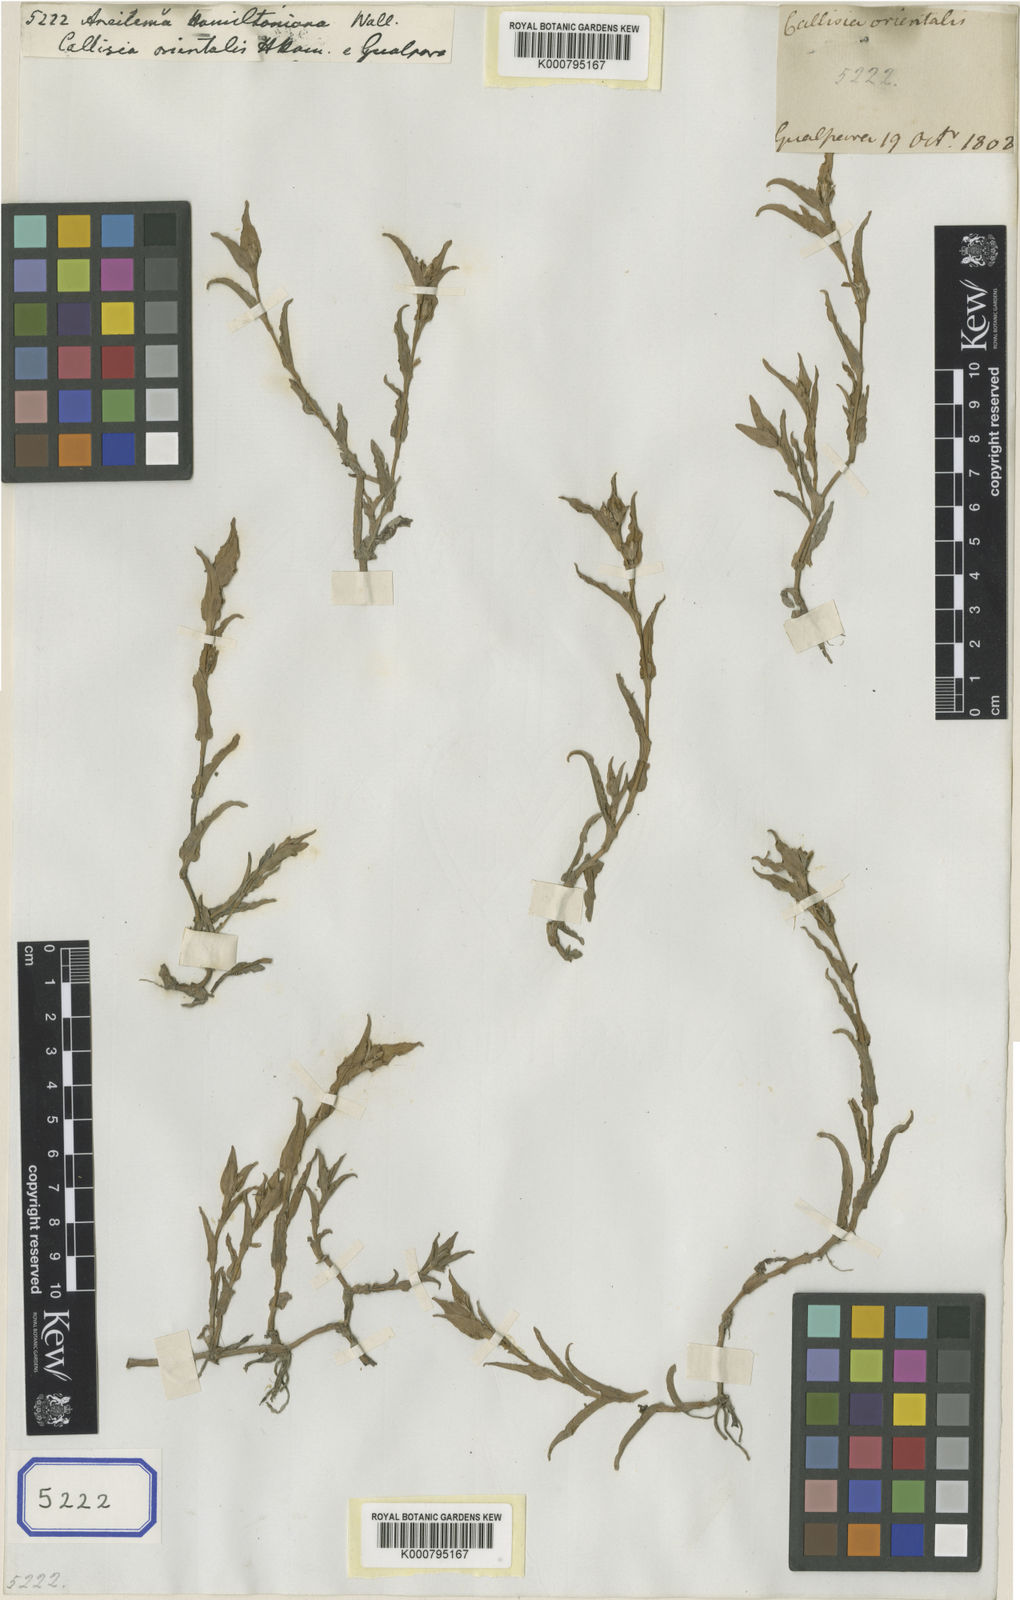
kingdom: Plantae
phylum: Tracheophyta
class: Liliopsida
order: Commelinales
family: Commelinaceae
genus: Aneilema
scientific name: Aneilema
